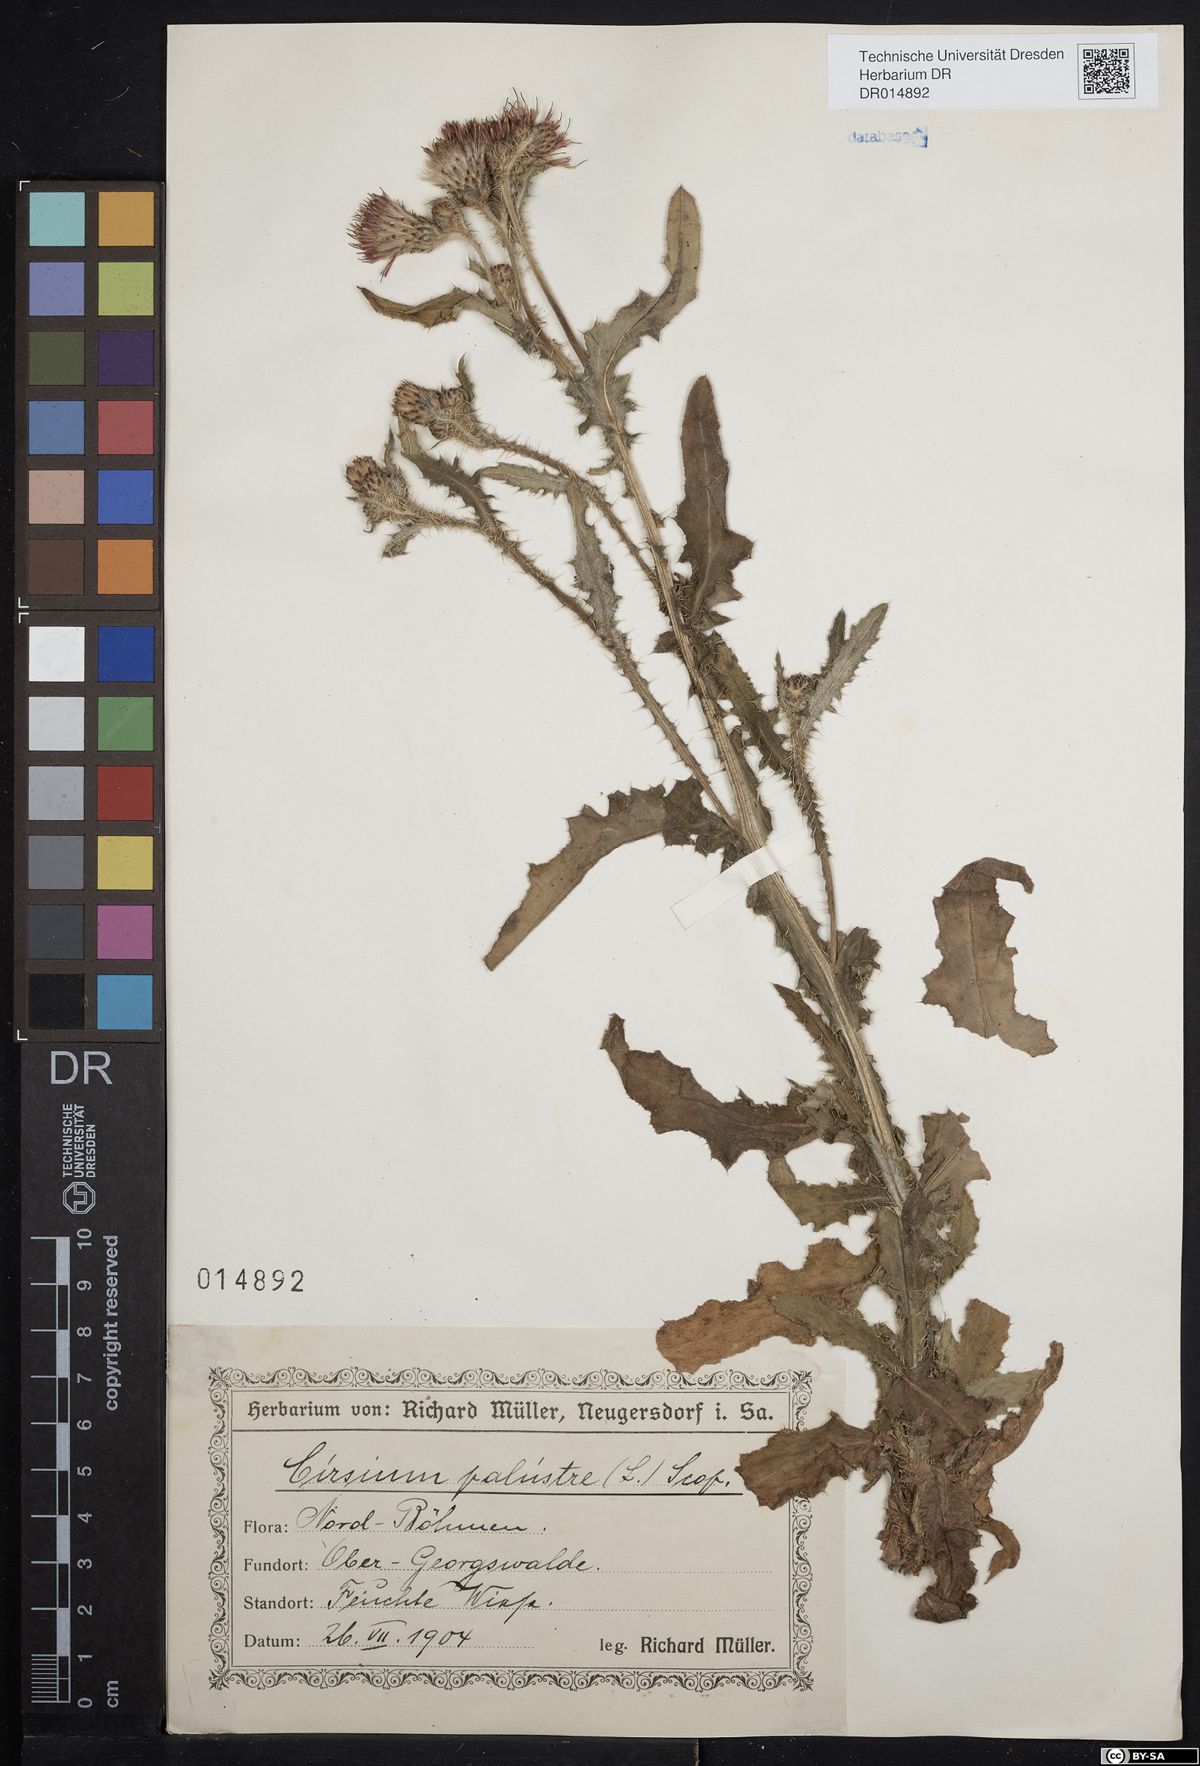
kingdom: Plantae
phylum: Tracheophyta
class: Magnoliopsida
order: Asterales
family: Asteraceae
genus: Cirsium
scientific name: Cirsium palustre
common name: Marsh thistle
